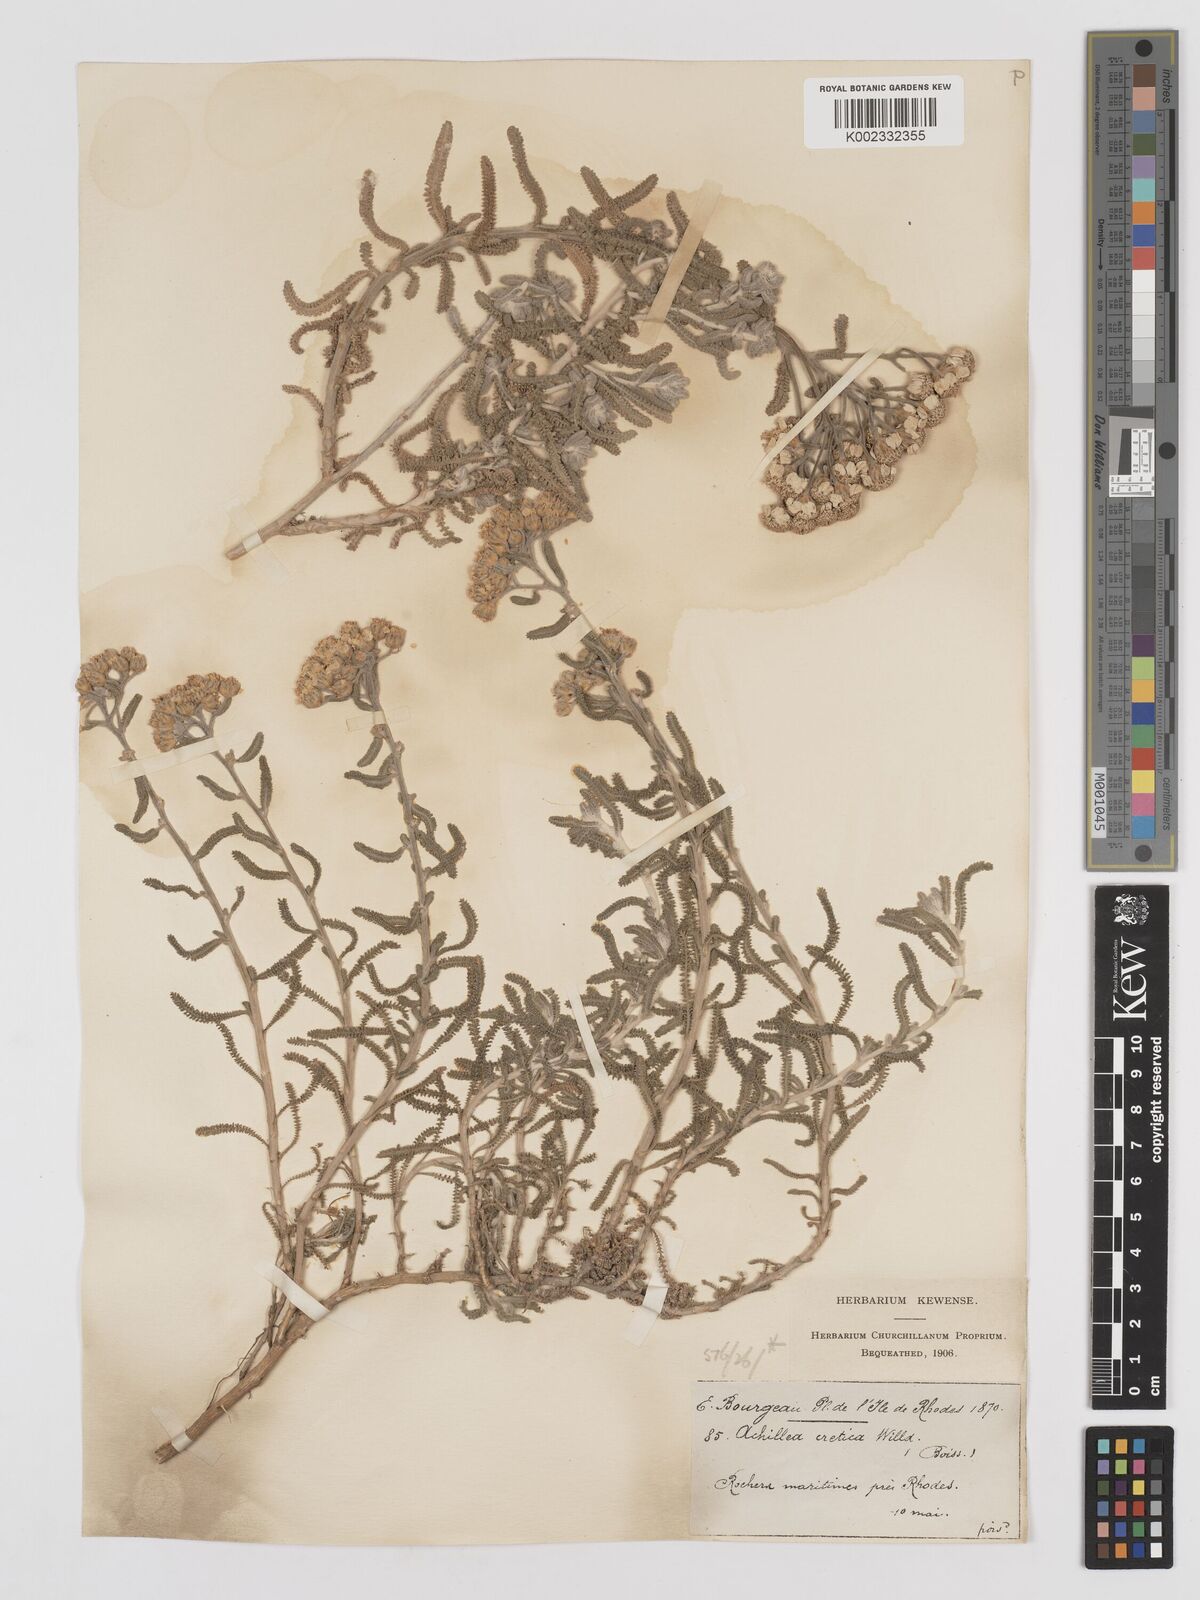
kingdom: Plantae
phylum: Tracheophyta
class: Magnoliopsida
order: Asterales
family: Asteraceae
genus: Achillea
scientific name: Achillea cretica
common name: Chamomile-leaved lavender-cotton
